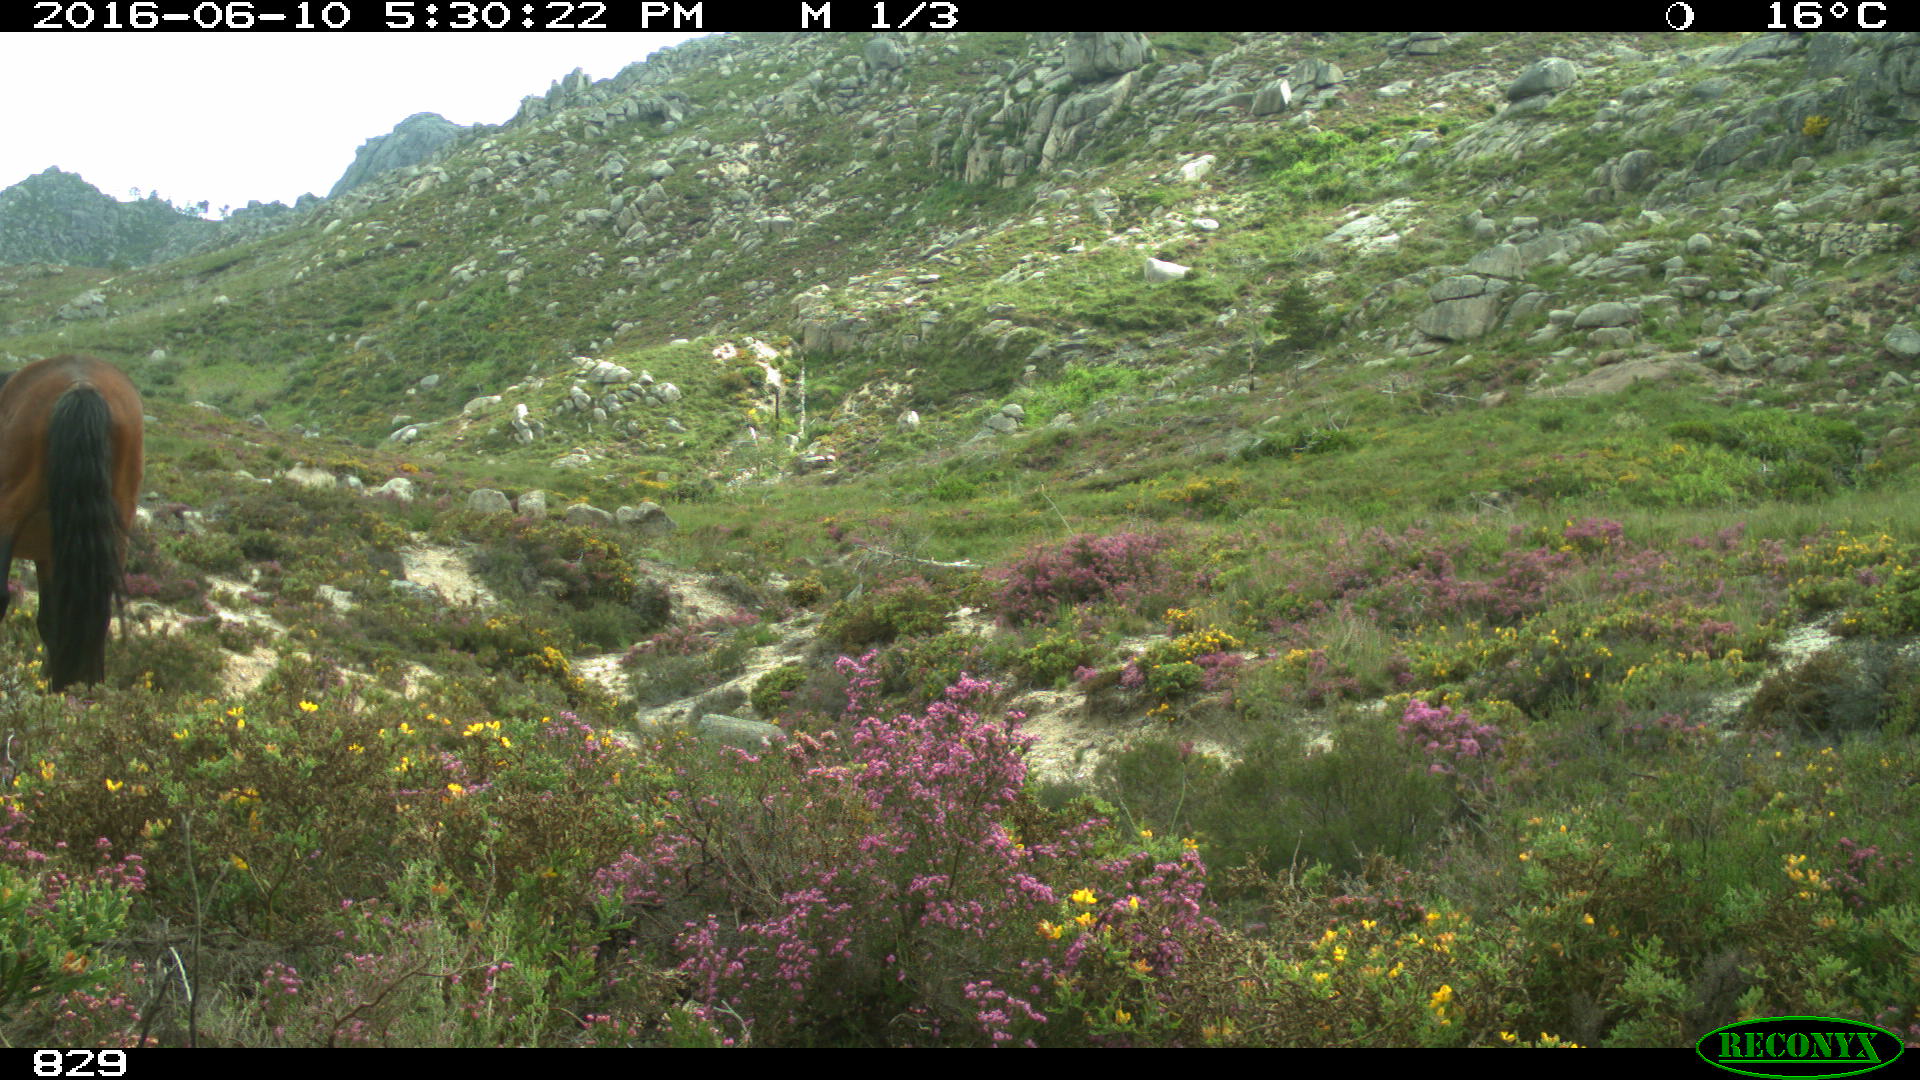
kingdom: Animalia
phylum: Chordata
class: Mammalia
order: Perissodactyla
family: Equidae
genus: Equus
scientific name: Equus caballus
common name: Horse
